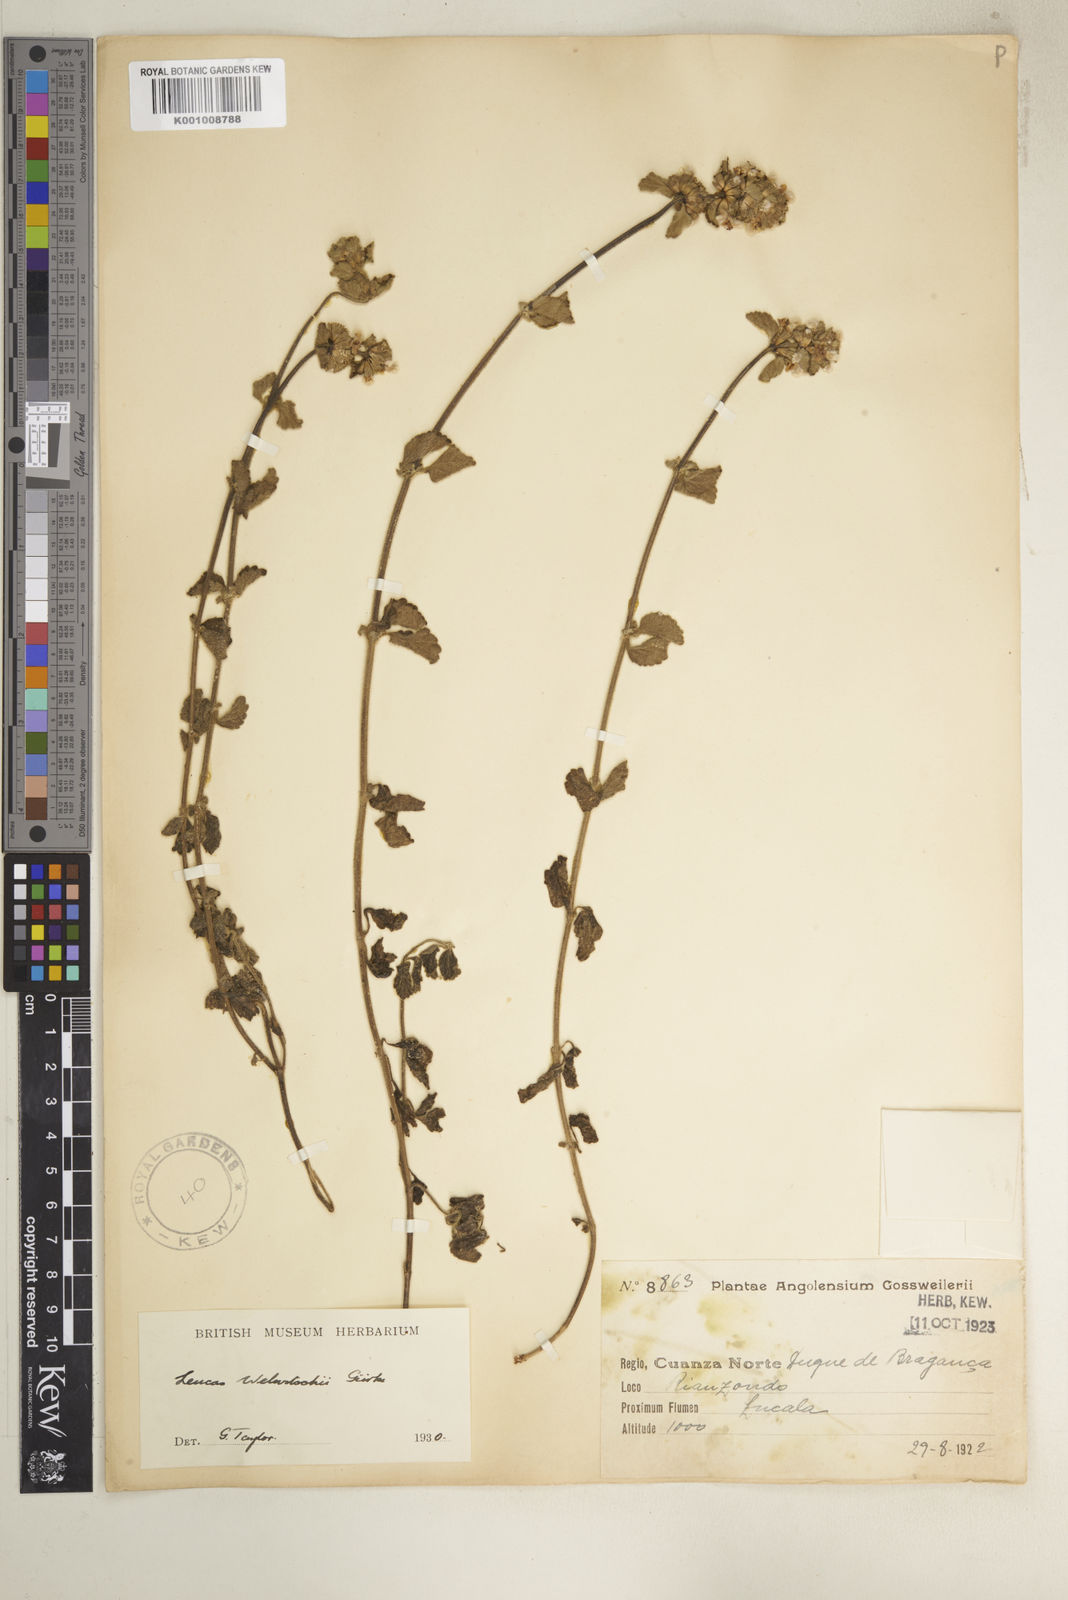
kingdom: Plantae
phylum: Tracheophyta
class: Magnoliopsida
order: Lamiales
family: Lamiaceae
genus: Leucas
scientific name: Leucas
